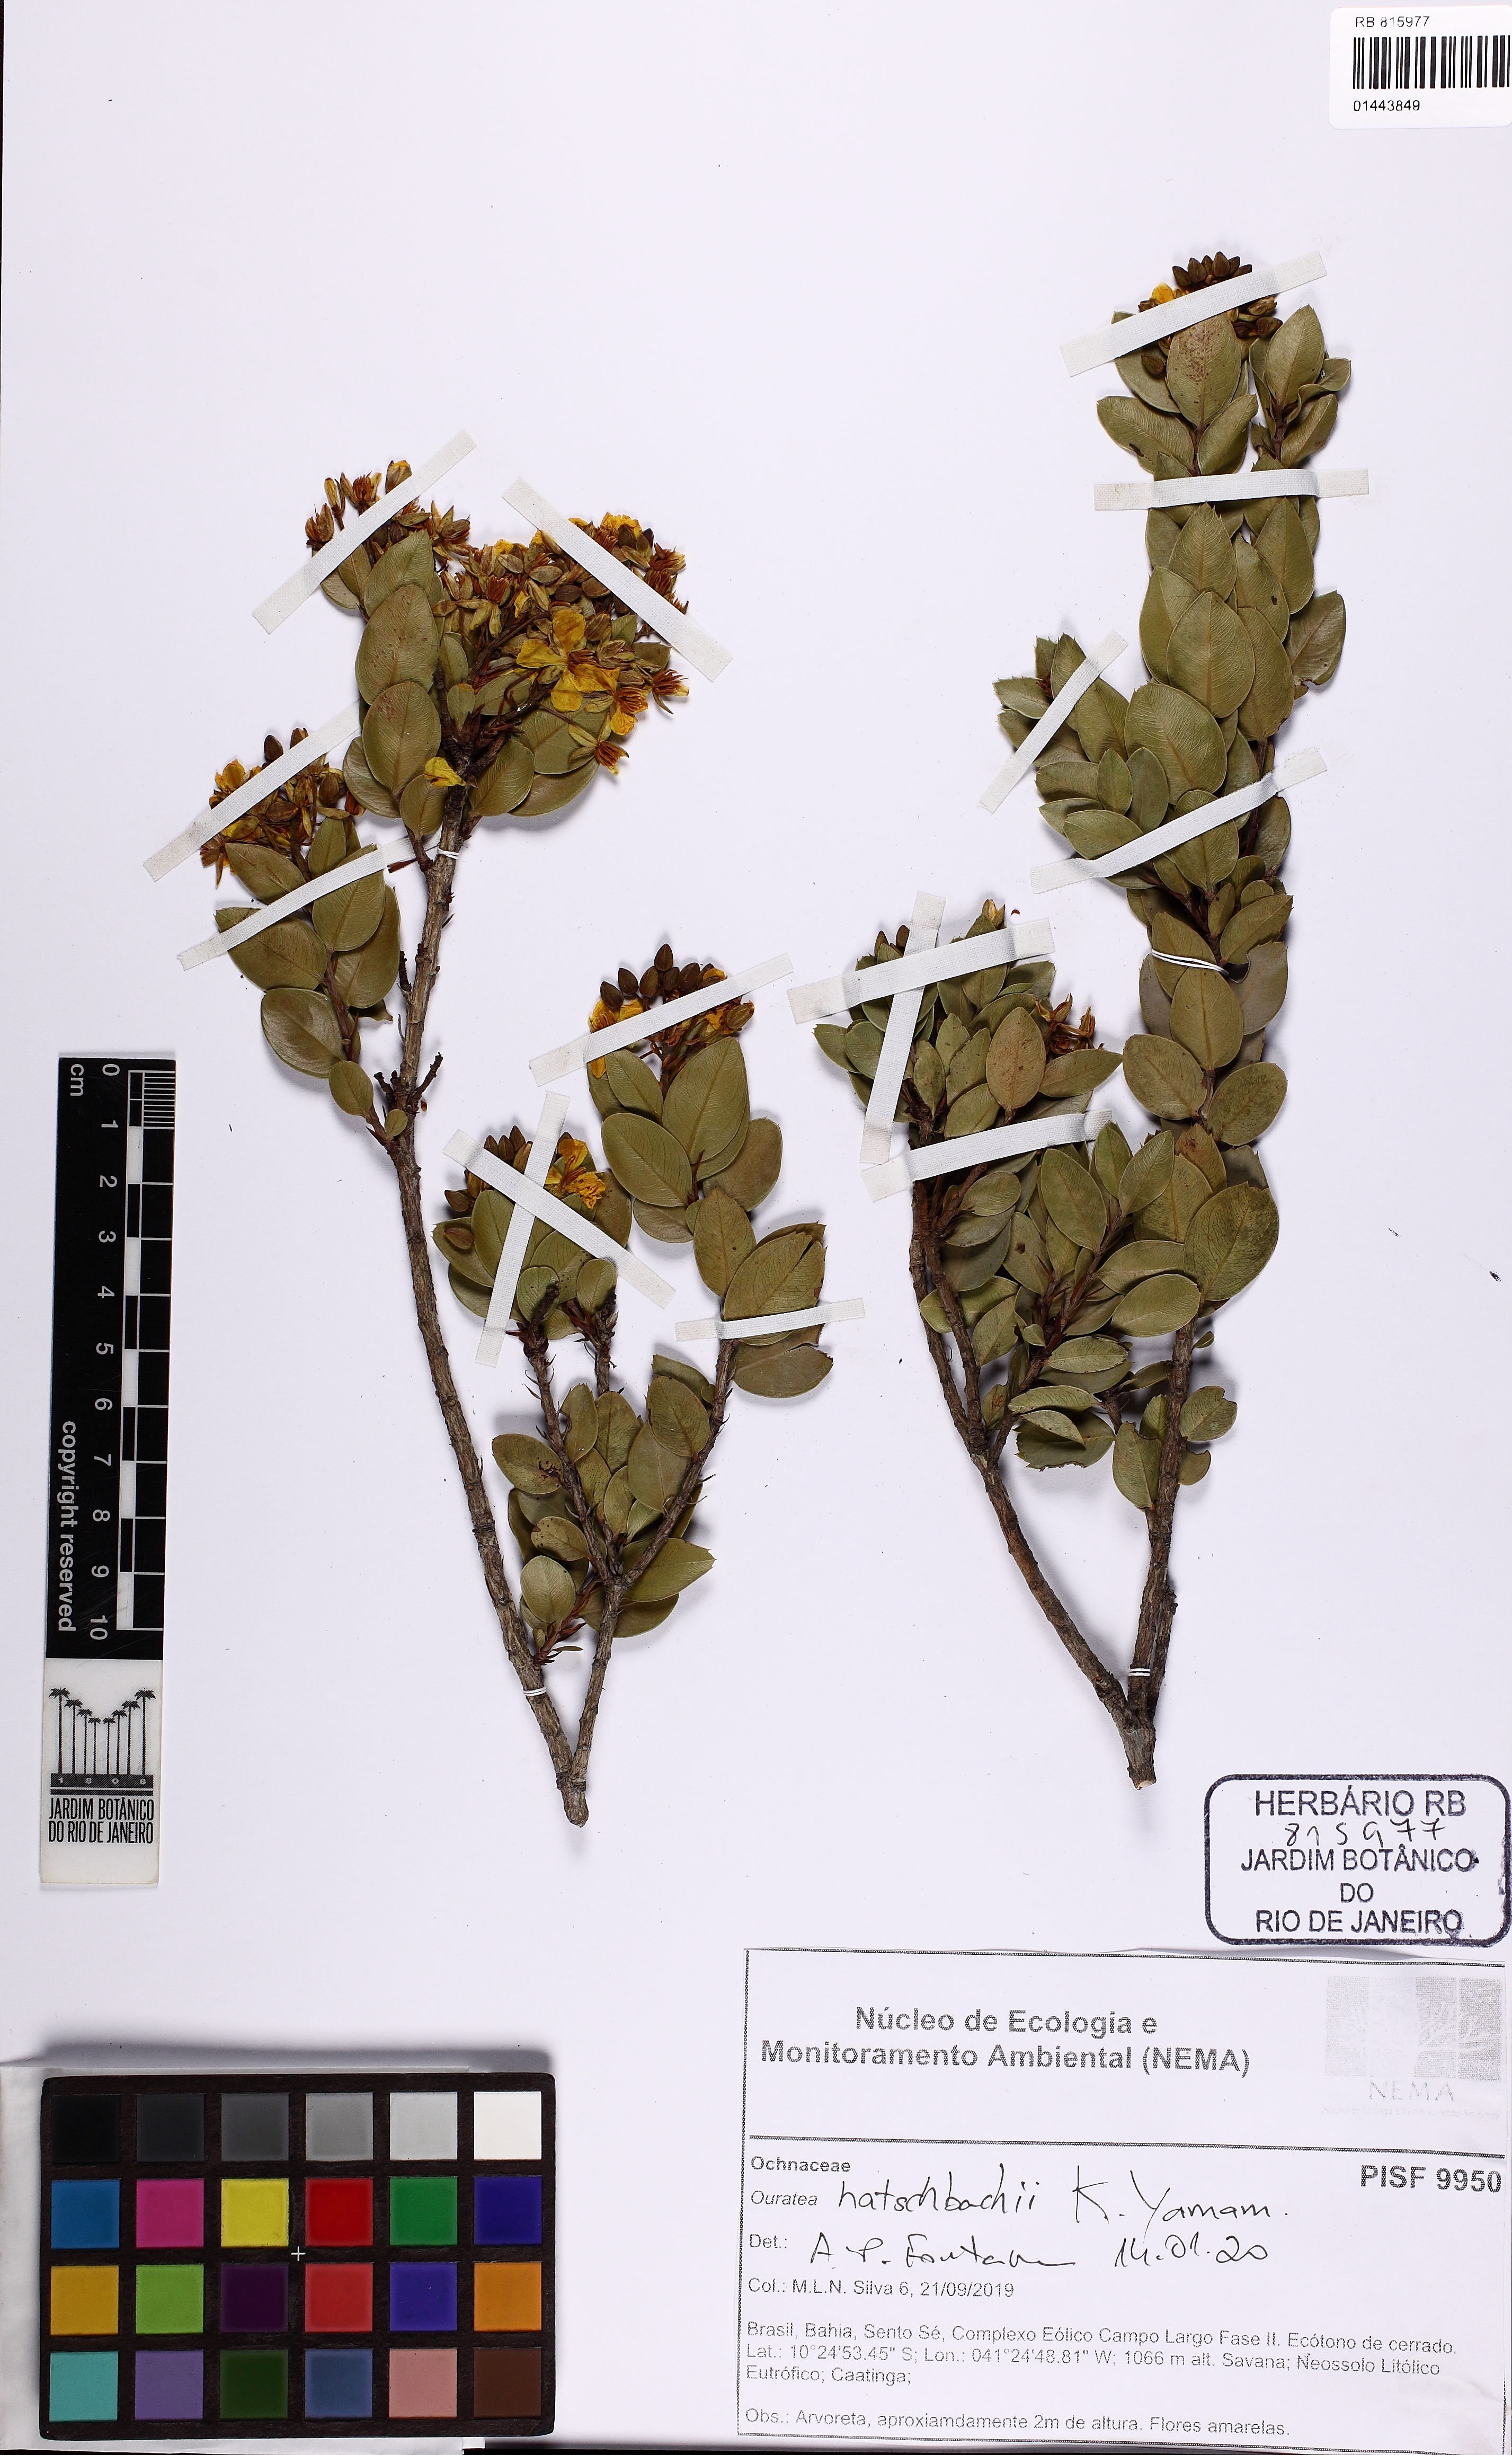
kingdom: Plantae
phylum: Tracheophyta
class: Magnoliopsida
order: Malpighiales
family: Ochnaceae
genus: Ouratea
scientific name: Ouratea hatschbachii
